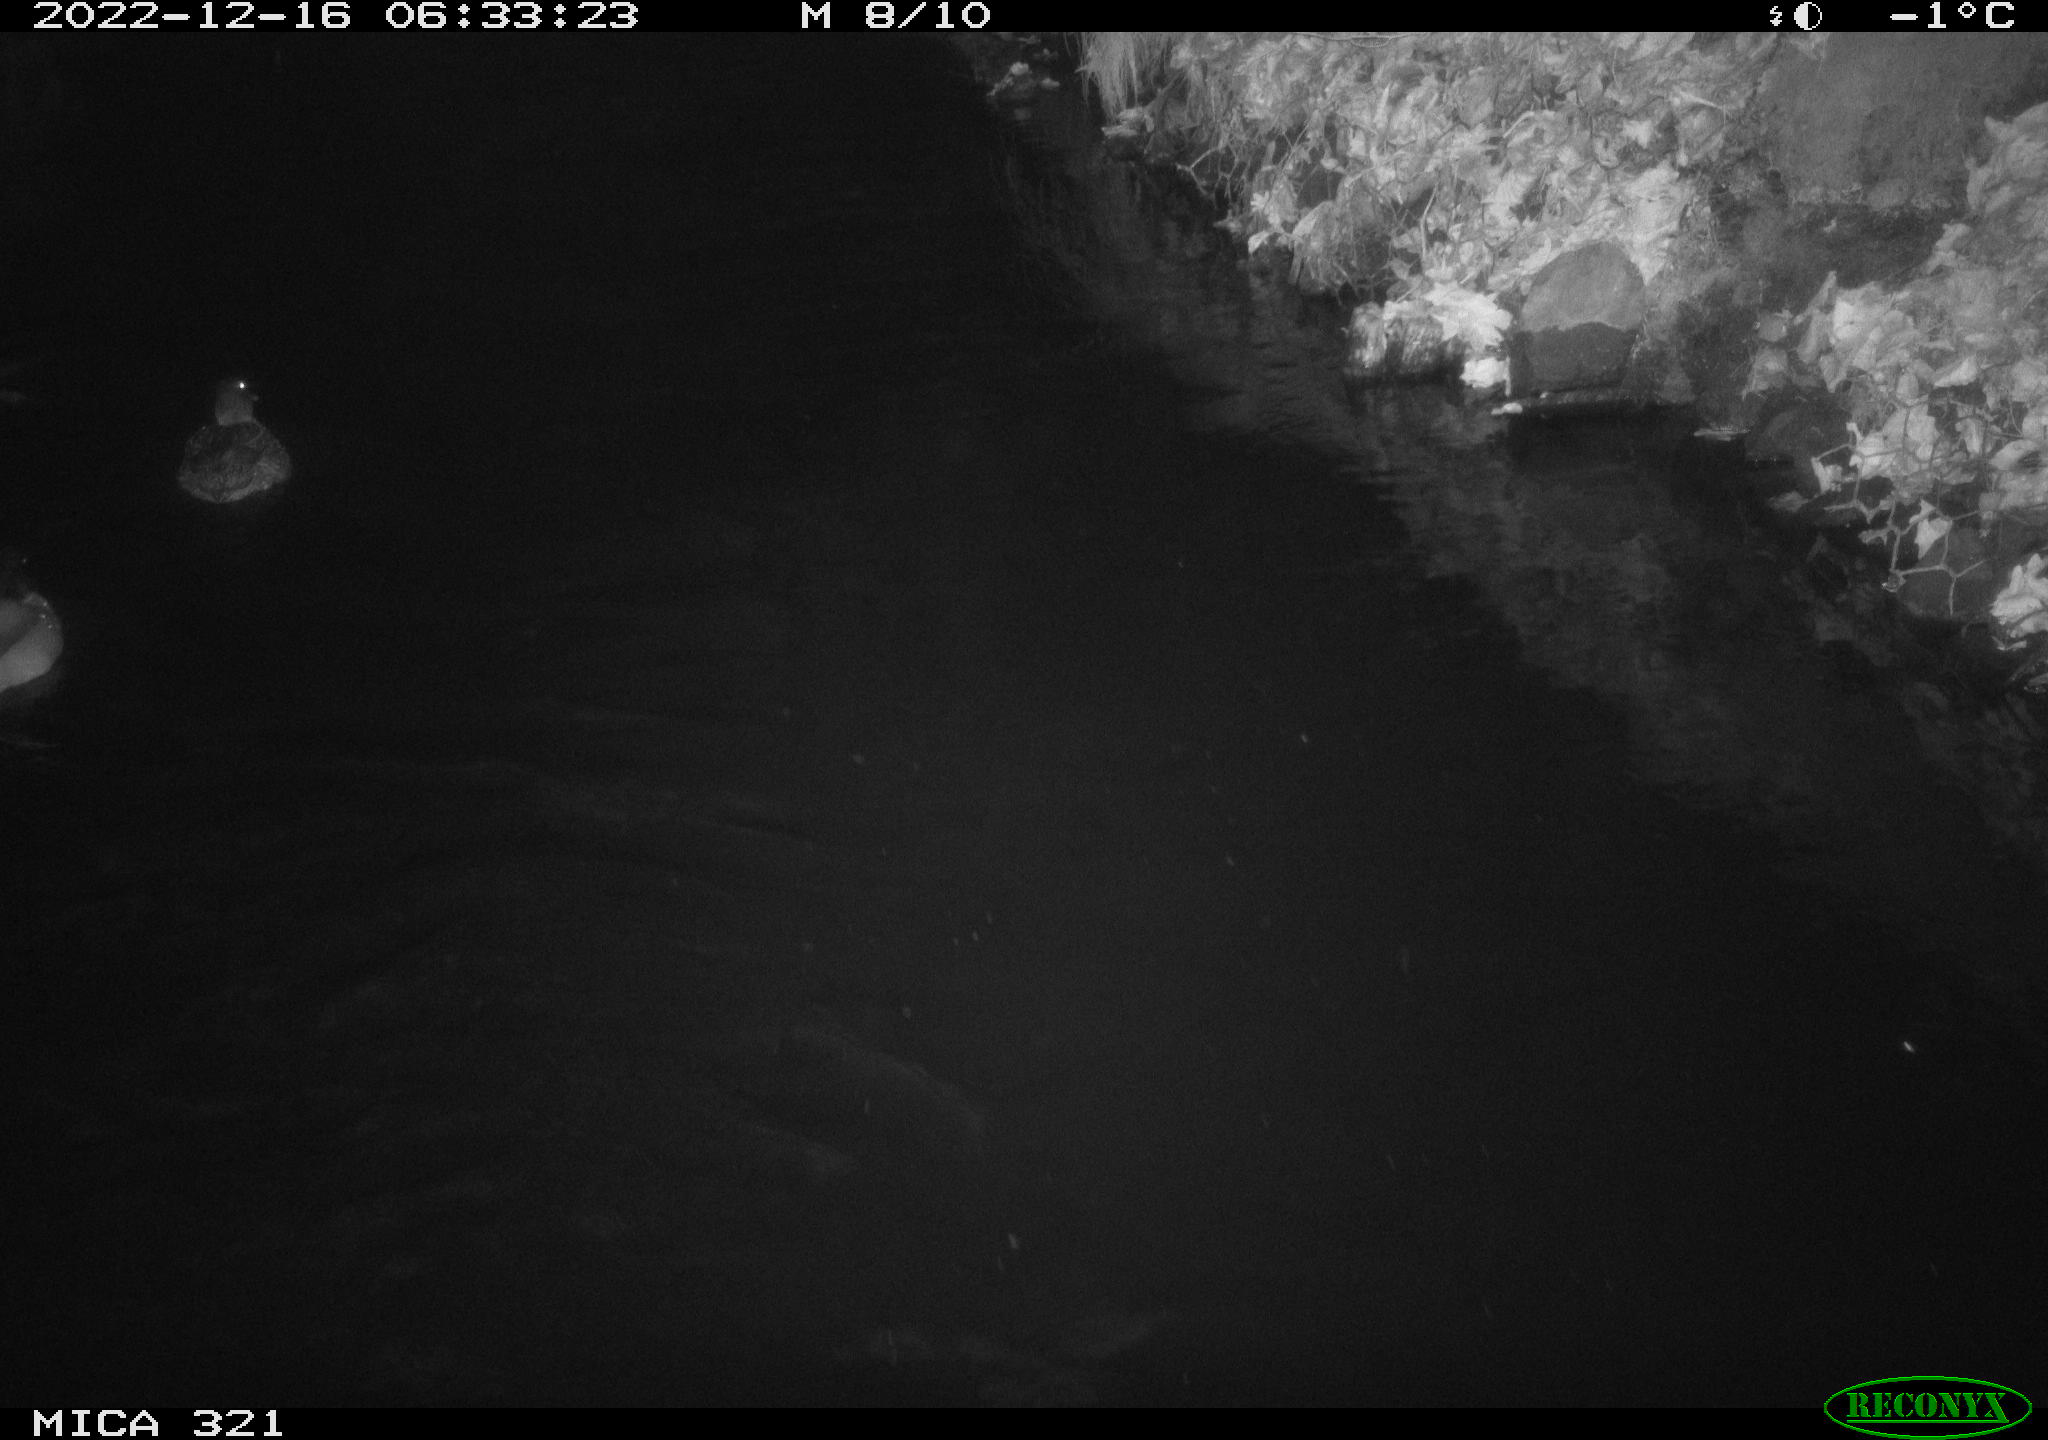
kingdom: Animalia
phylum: Chordata
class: Aves
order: Anseriformes
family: Anatidae
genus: Anas
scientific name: Anas
